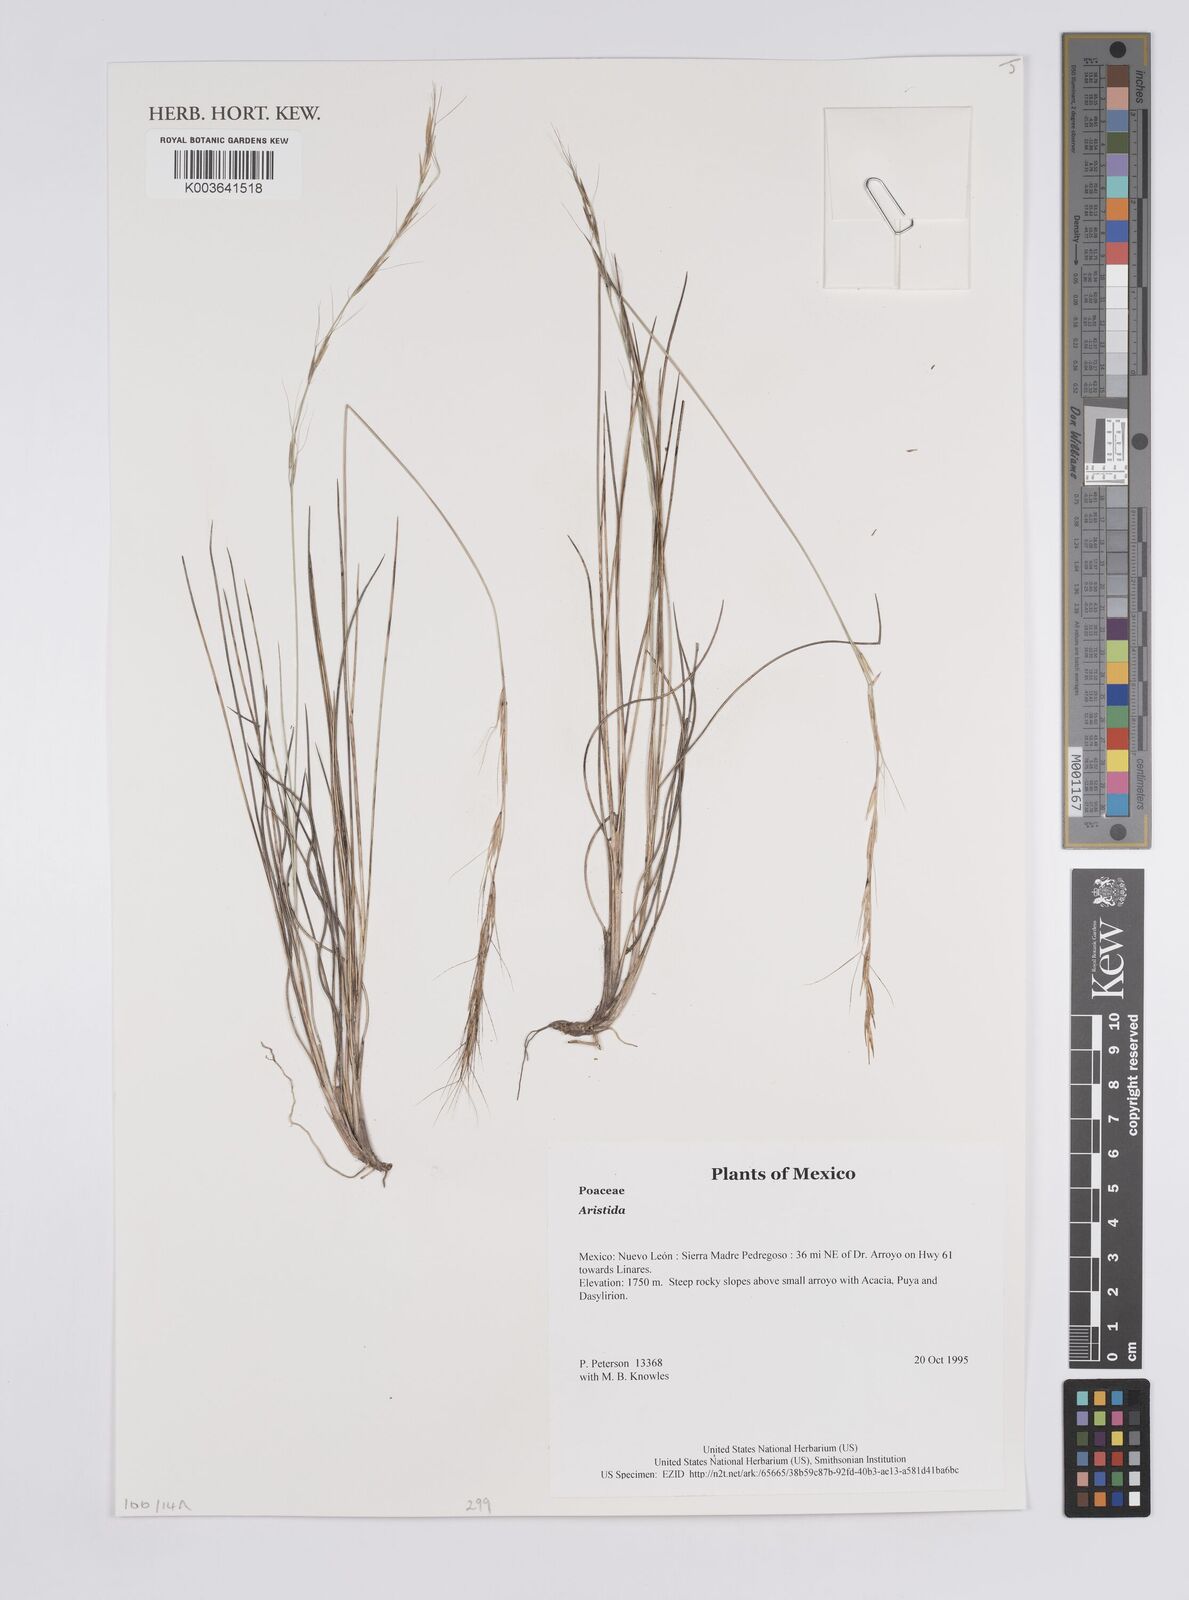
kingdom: Plantae
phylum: Tracheophyta
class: Liliopsida
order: Poales
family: Poaceae
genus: Aristida
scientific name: Aristida
